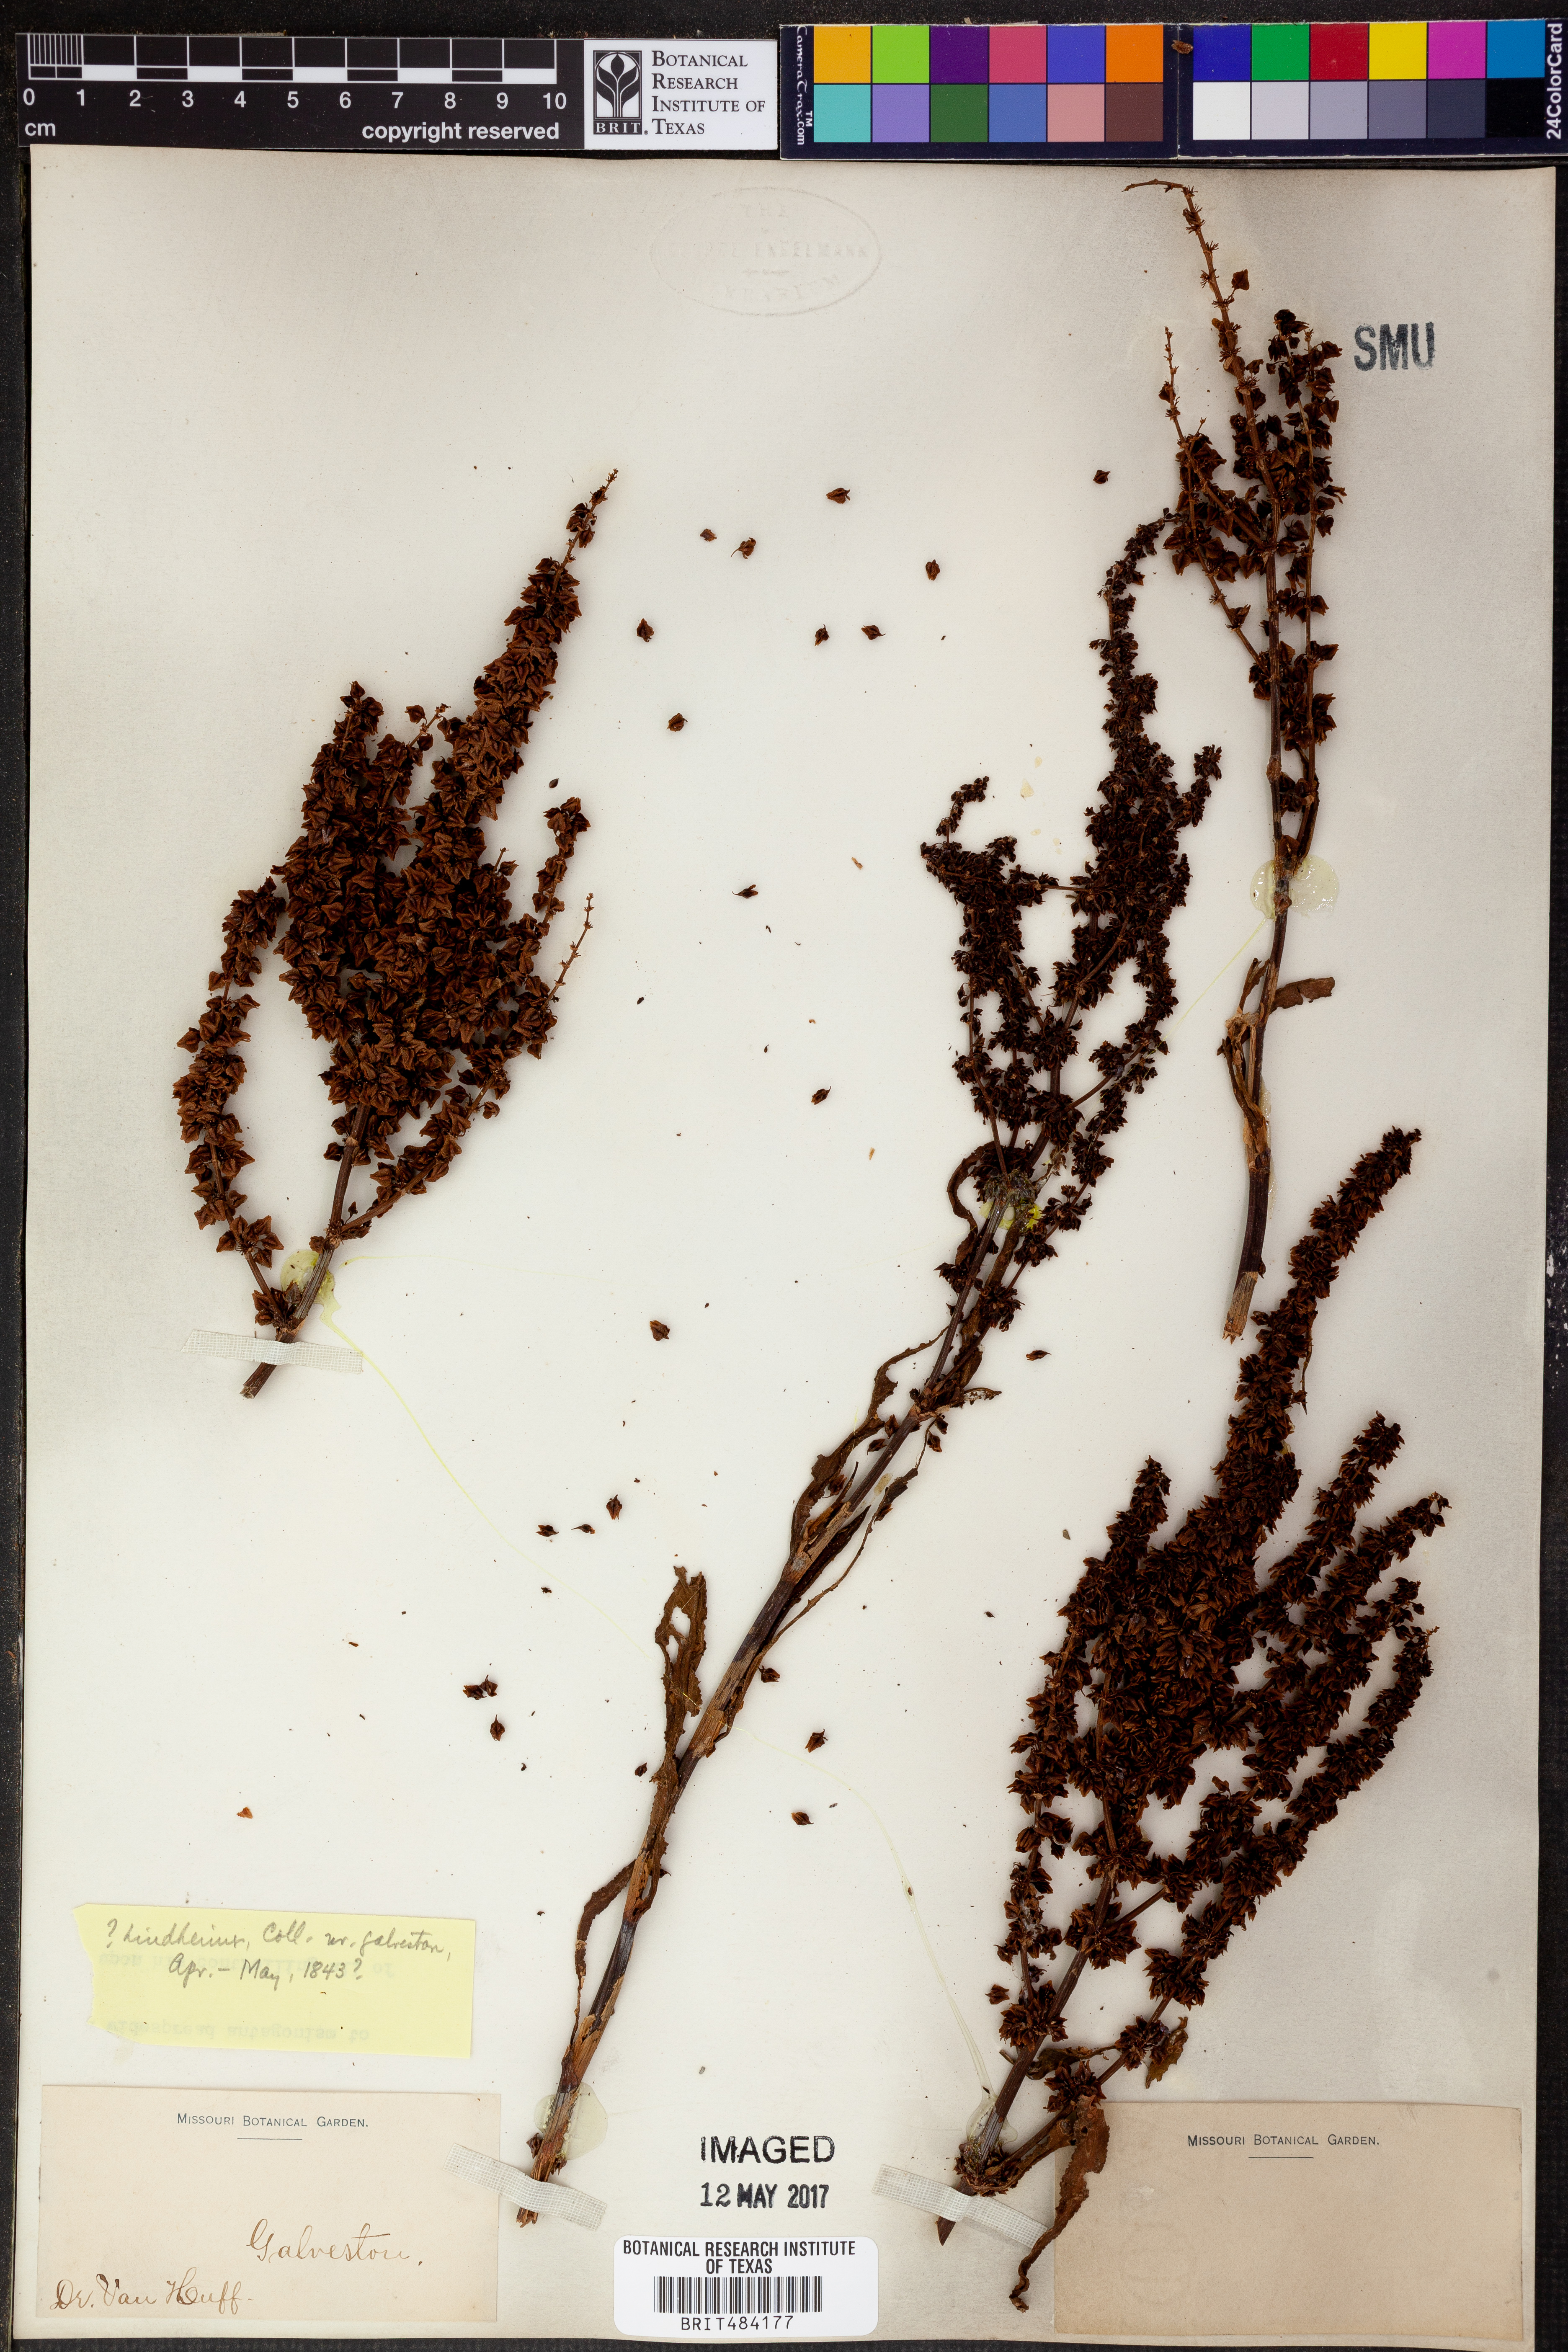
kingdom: Plantae
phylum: Tracheophyta
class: Magnoliopsida
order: Asterales
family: Asteraceae
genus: Lindheimera
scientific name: Lindheimera
